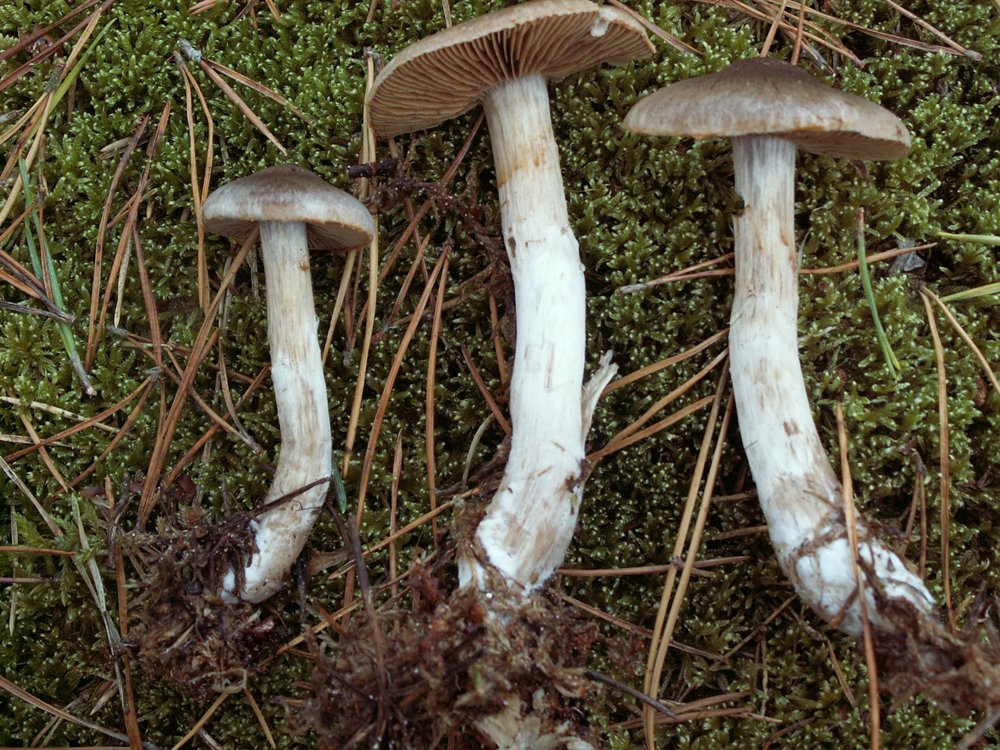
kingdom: Fungi
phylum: Basidiomycota
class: Agaricomycetes
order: Agaricales
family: Cortinariaceae
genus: Cortinarius
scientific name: Cortinarius kauffmanianus
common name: plantage-slørhat
